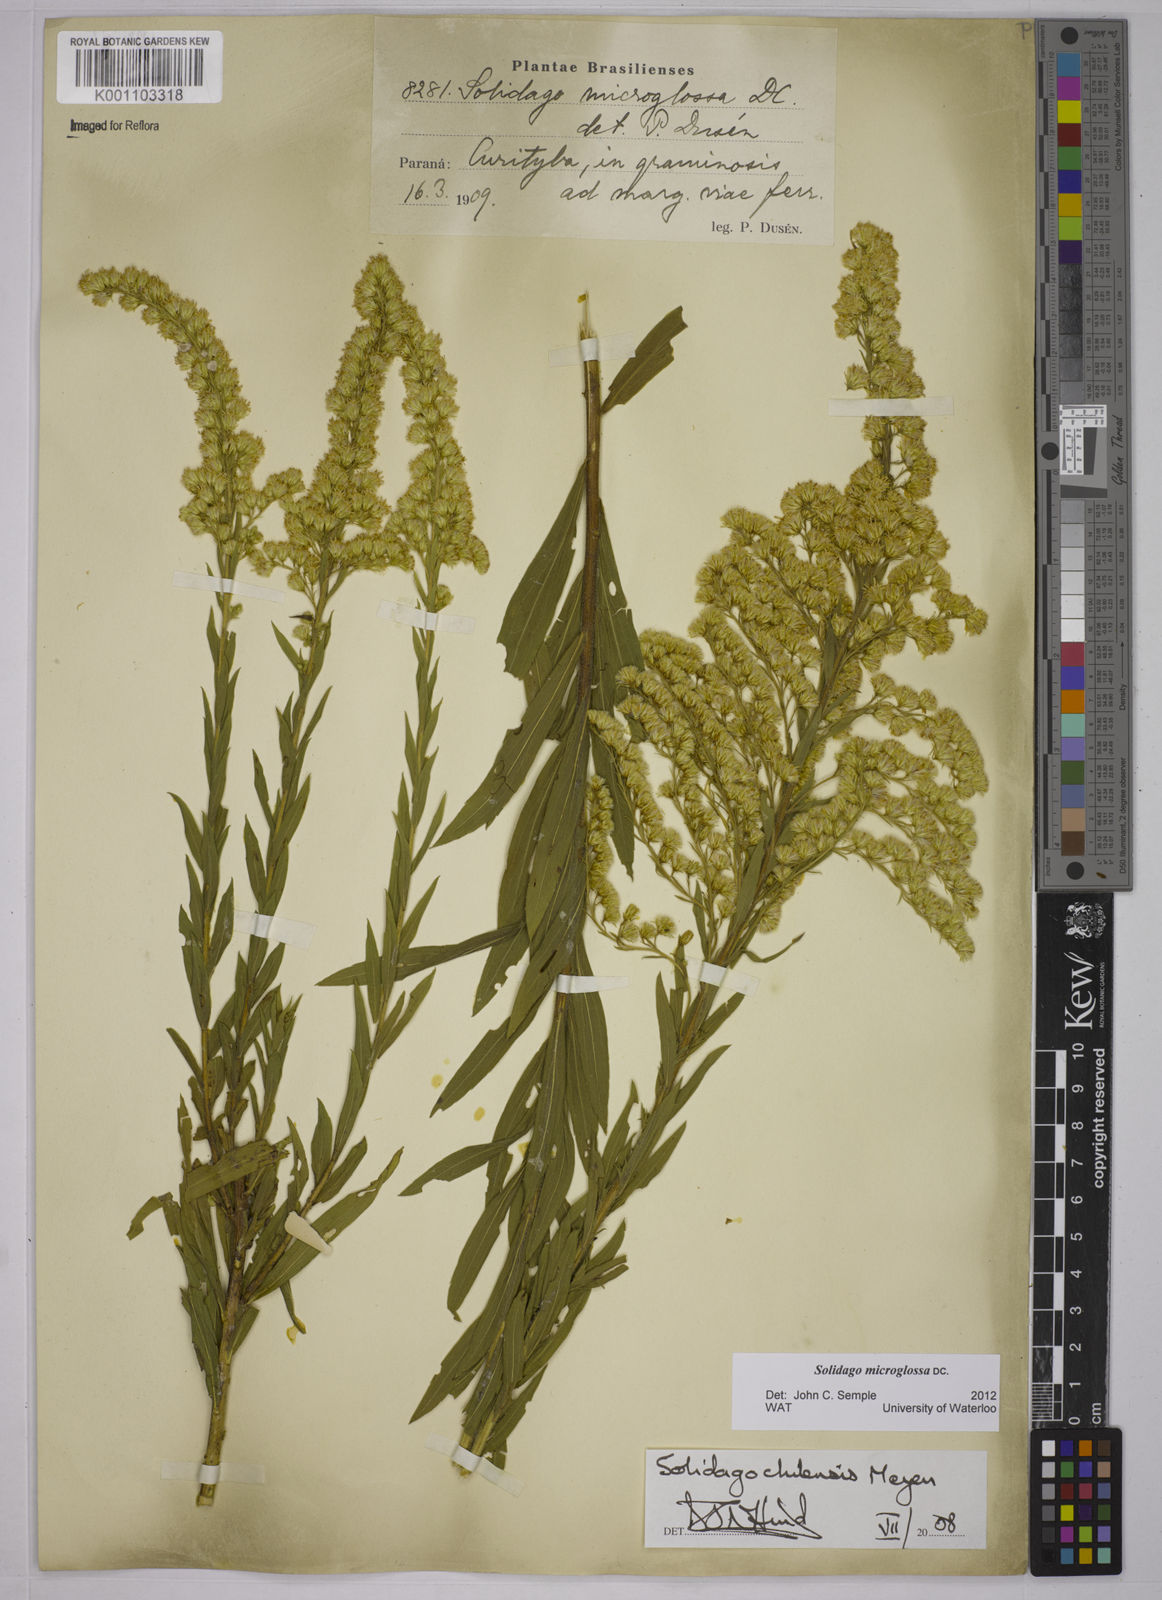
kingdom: Plantae
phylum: Tracheophyta
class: Magnoliopsida
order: Asterales
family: Asteraceae
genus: Solidago
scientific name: Solidago chilensis
